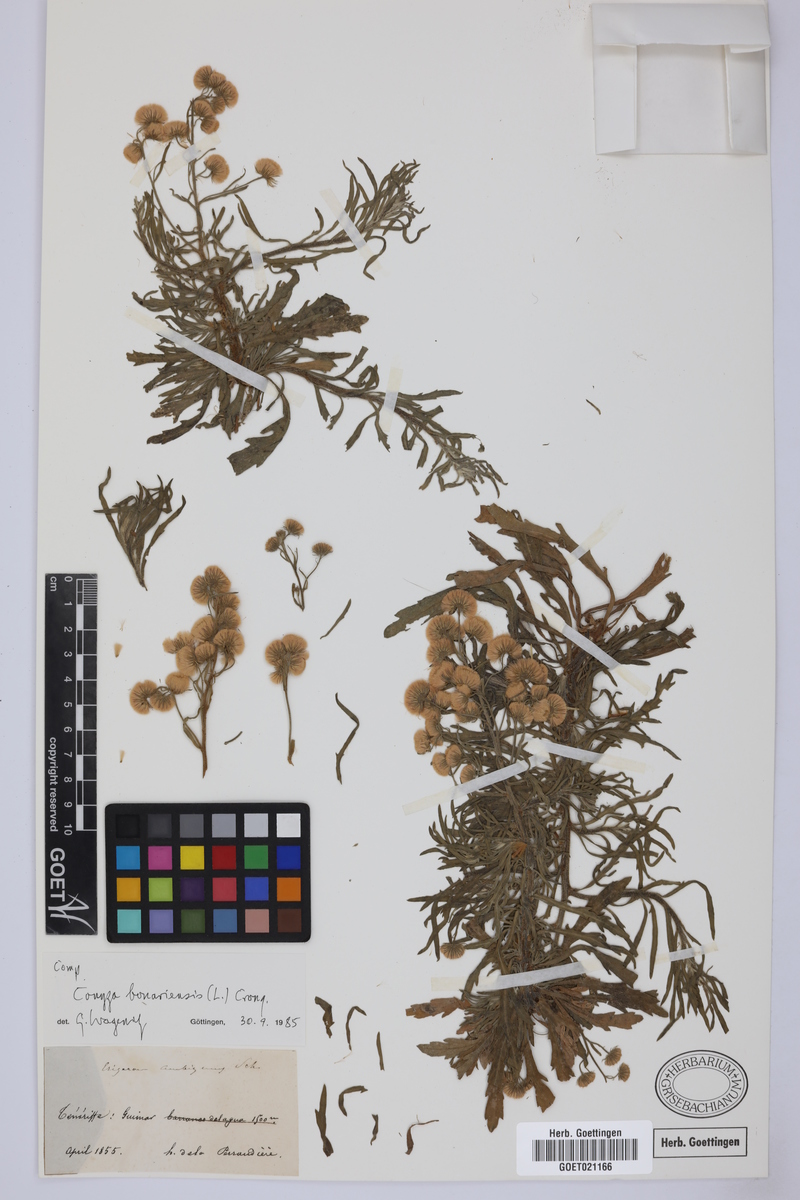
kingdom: Plantae
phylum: Tracheophyta
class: Magnoliopsida
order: Asterales
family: Asteraceae
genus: Erigeron
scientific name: Erigeron bonariensis
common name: Argentine fleabane
